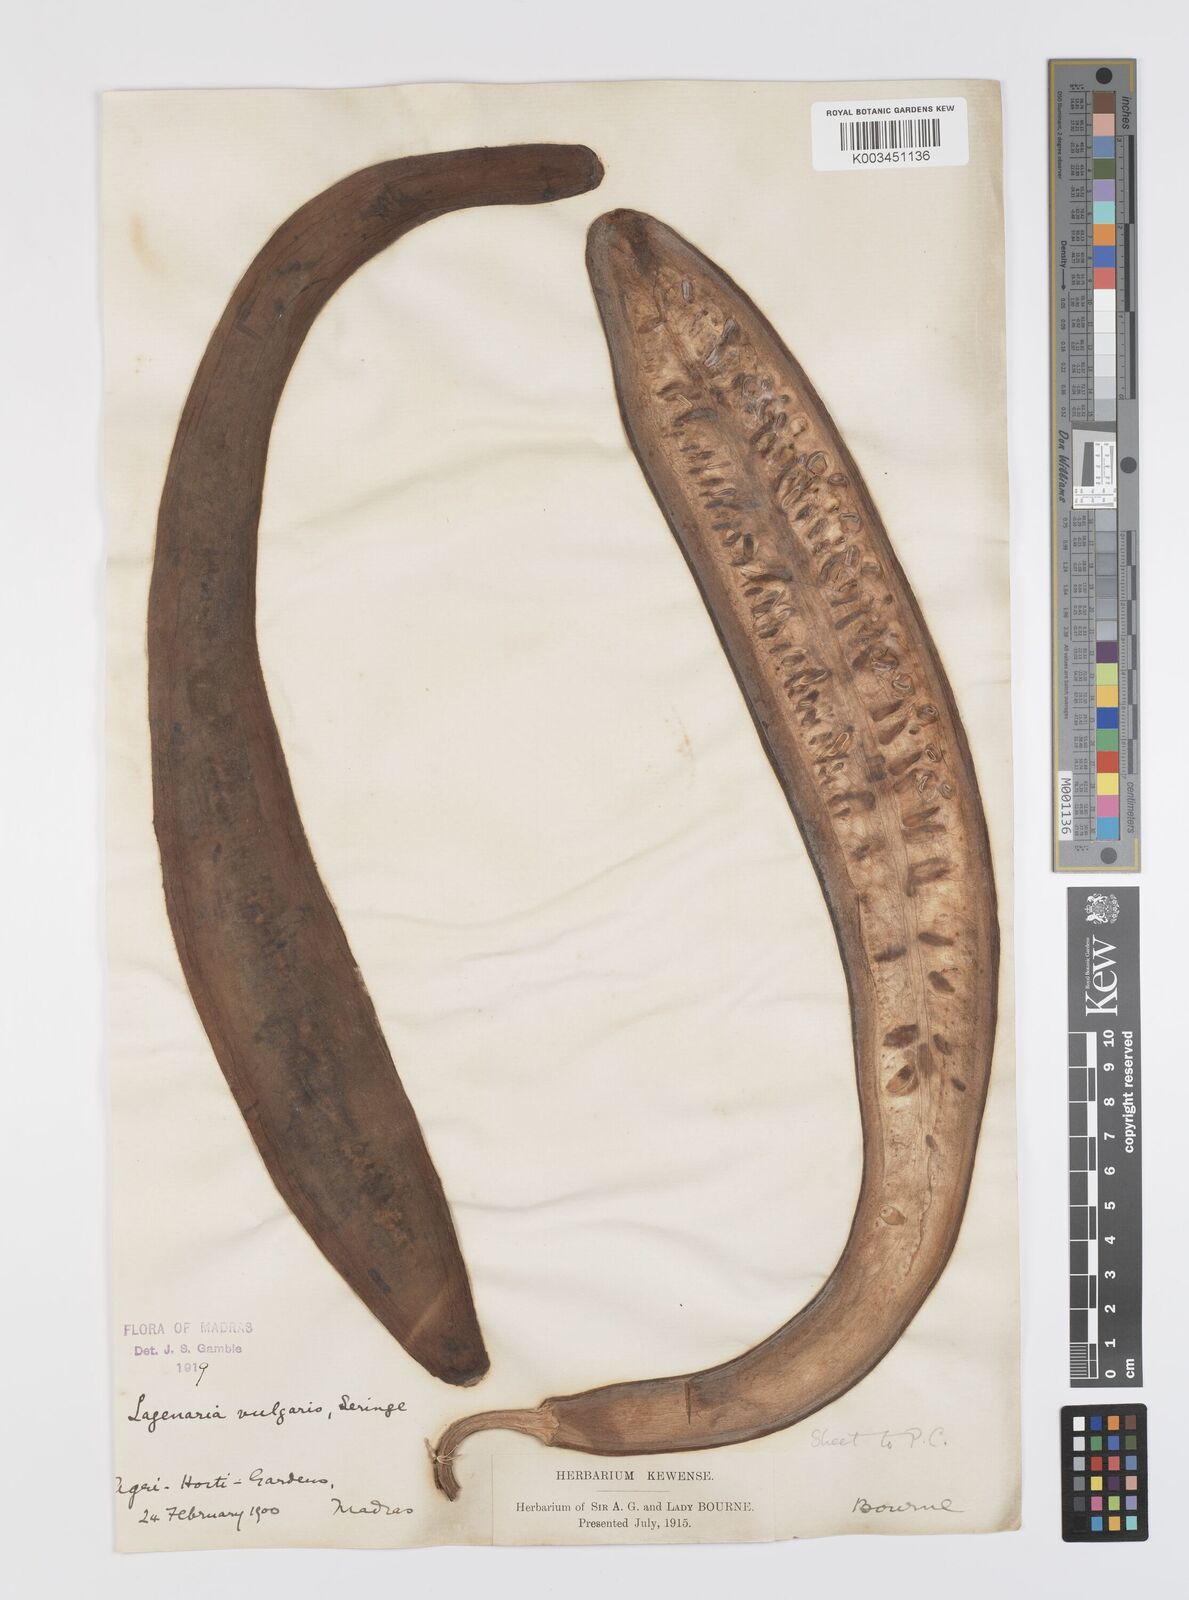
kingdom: Plantae
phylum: Tracheophyta
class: Magnoliopsida
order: Cucurbitales
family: Cucurbitaceae
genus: Lagenaria
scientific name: Lagenaria siceraria
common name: Bottle gourd
